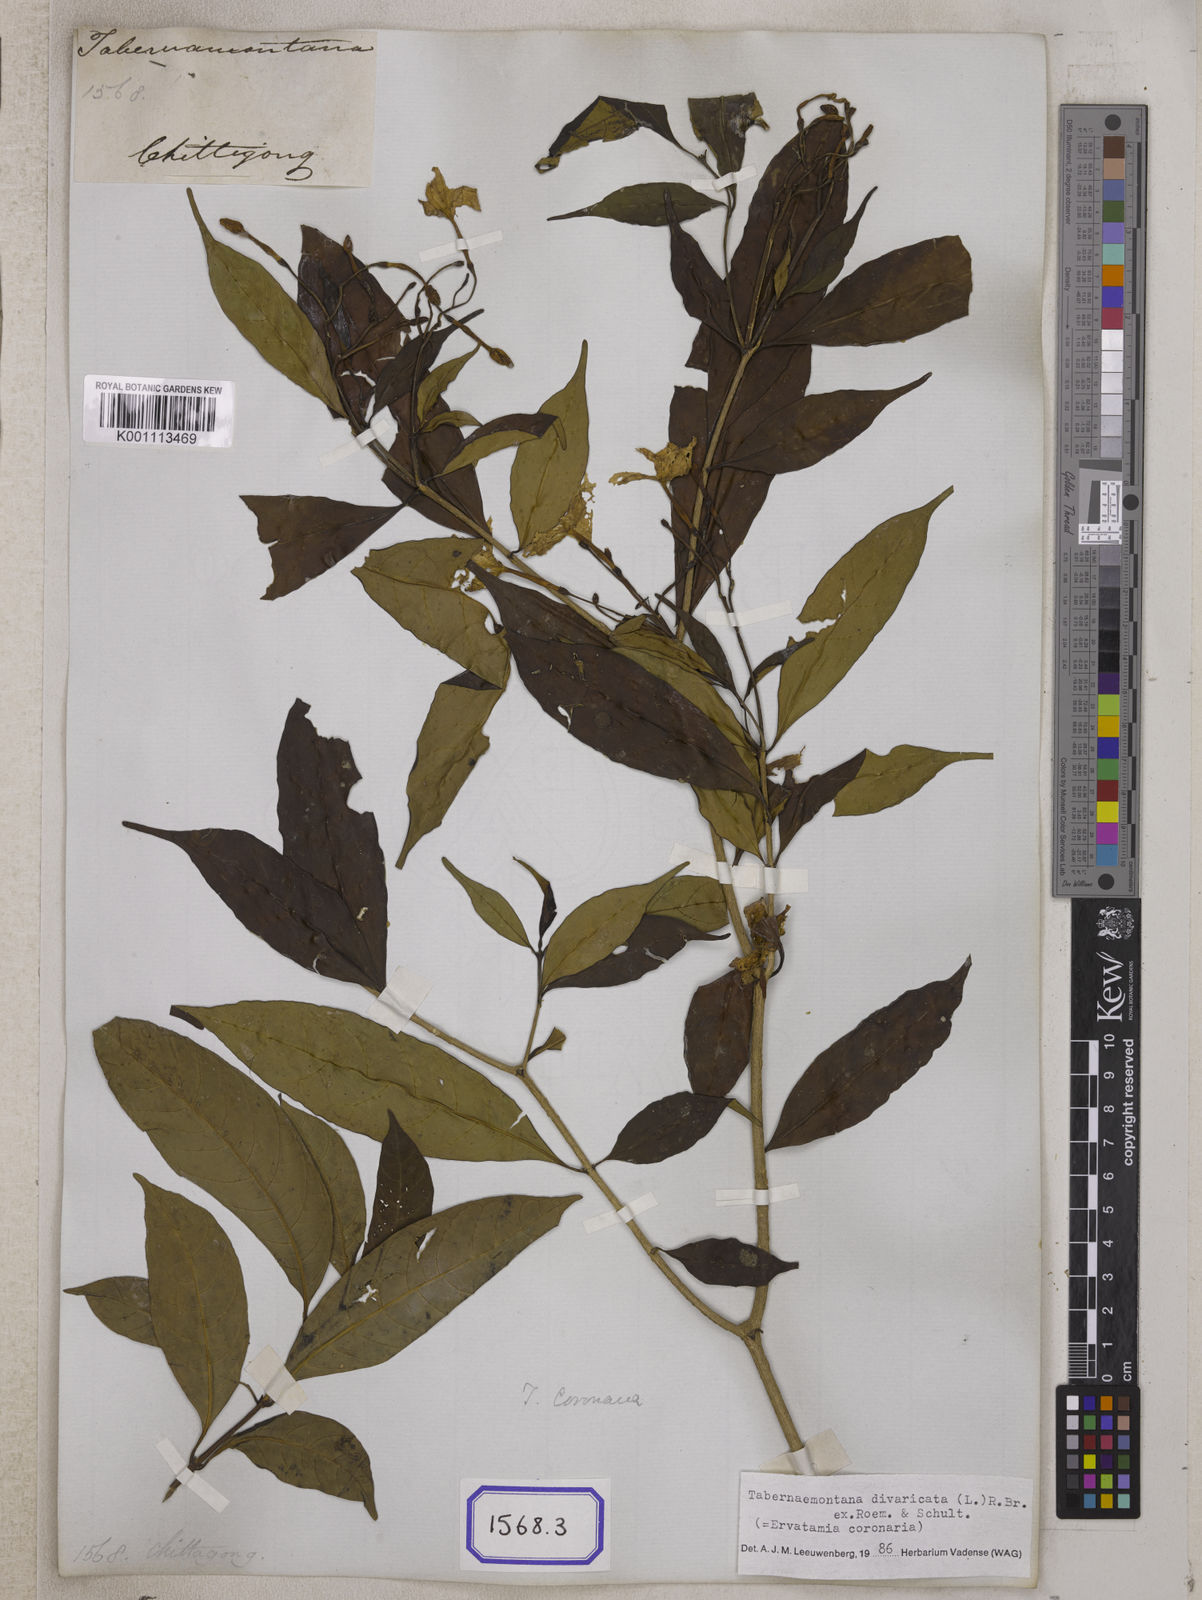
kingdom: Plantae
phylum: Tracheophyta
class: Magnoliopsida
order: Gentianales
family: Apocynaceae
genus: Tabernaemontana
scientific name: Tabernaemontana divaricata
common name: Pinwheelflower
